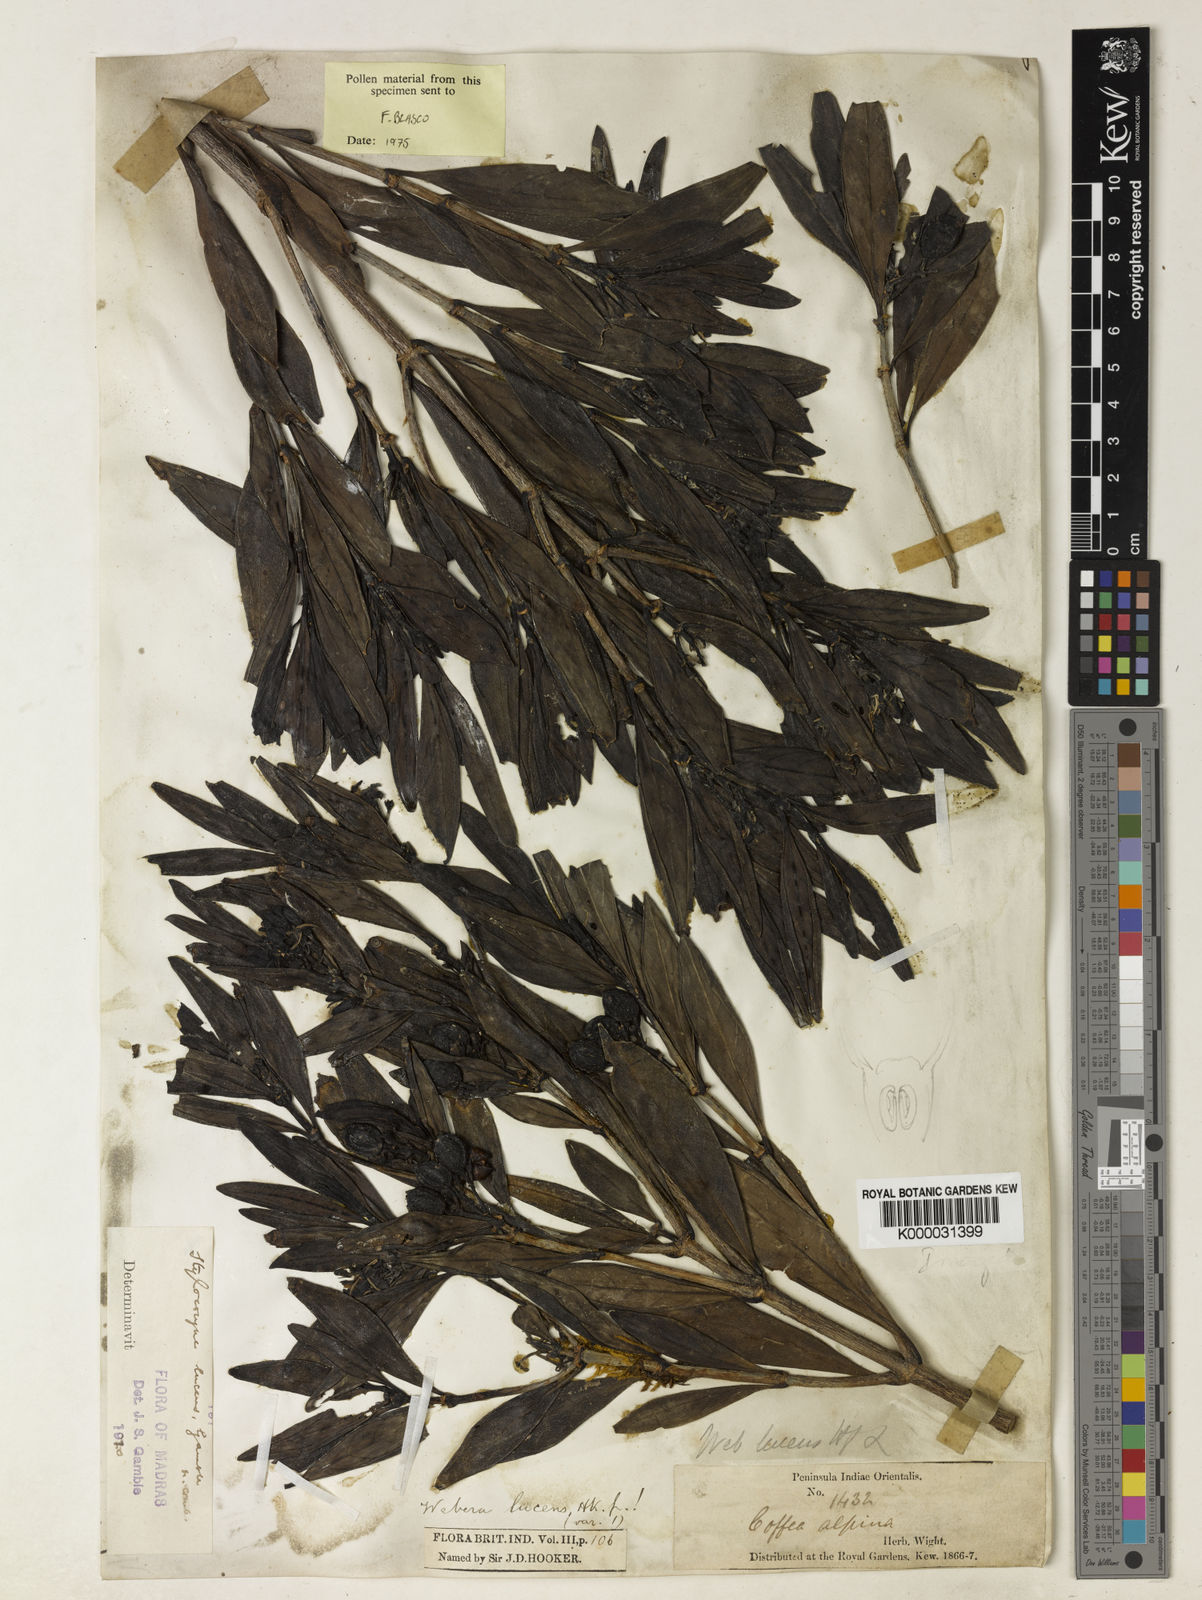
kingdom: Plantae
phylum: Tracheophyta
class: Magnoliopsida
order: Gentianales
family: Rubiaceae
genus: Tarenna
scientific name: Tarenna alpestris
